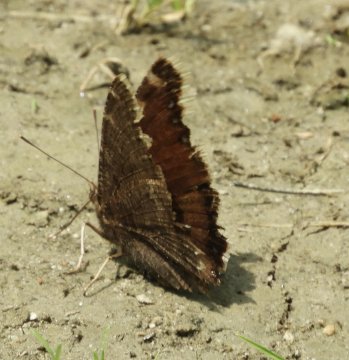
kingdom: Animalia
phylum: Arthropoda
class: Insecta
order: Lepidoptera
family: Nymphalidae
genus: Nymphalis
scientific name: Nymphalis antiopa
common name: Mourning Cloak
